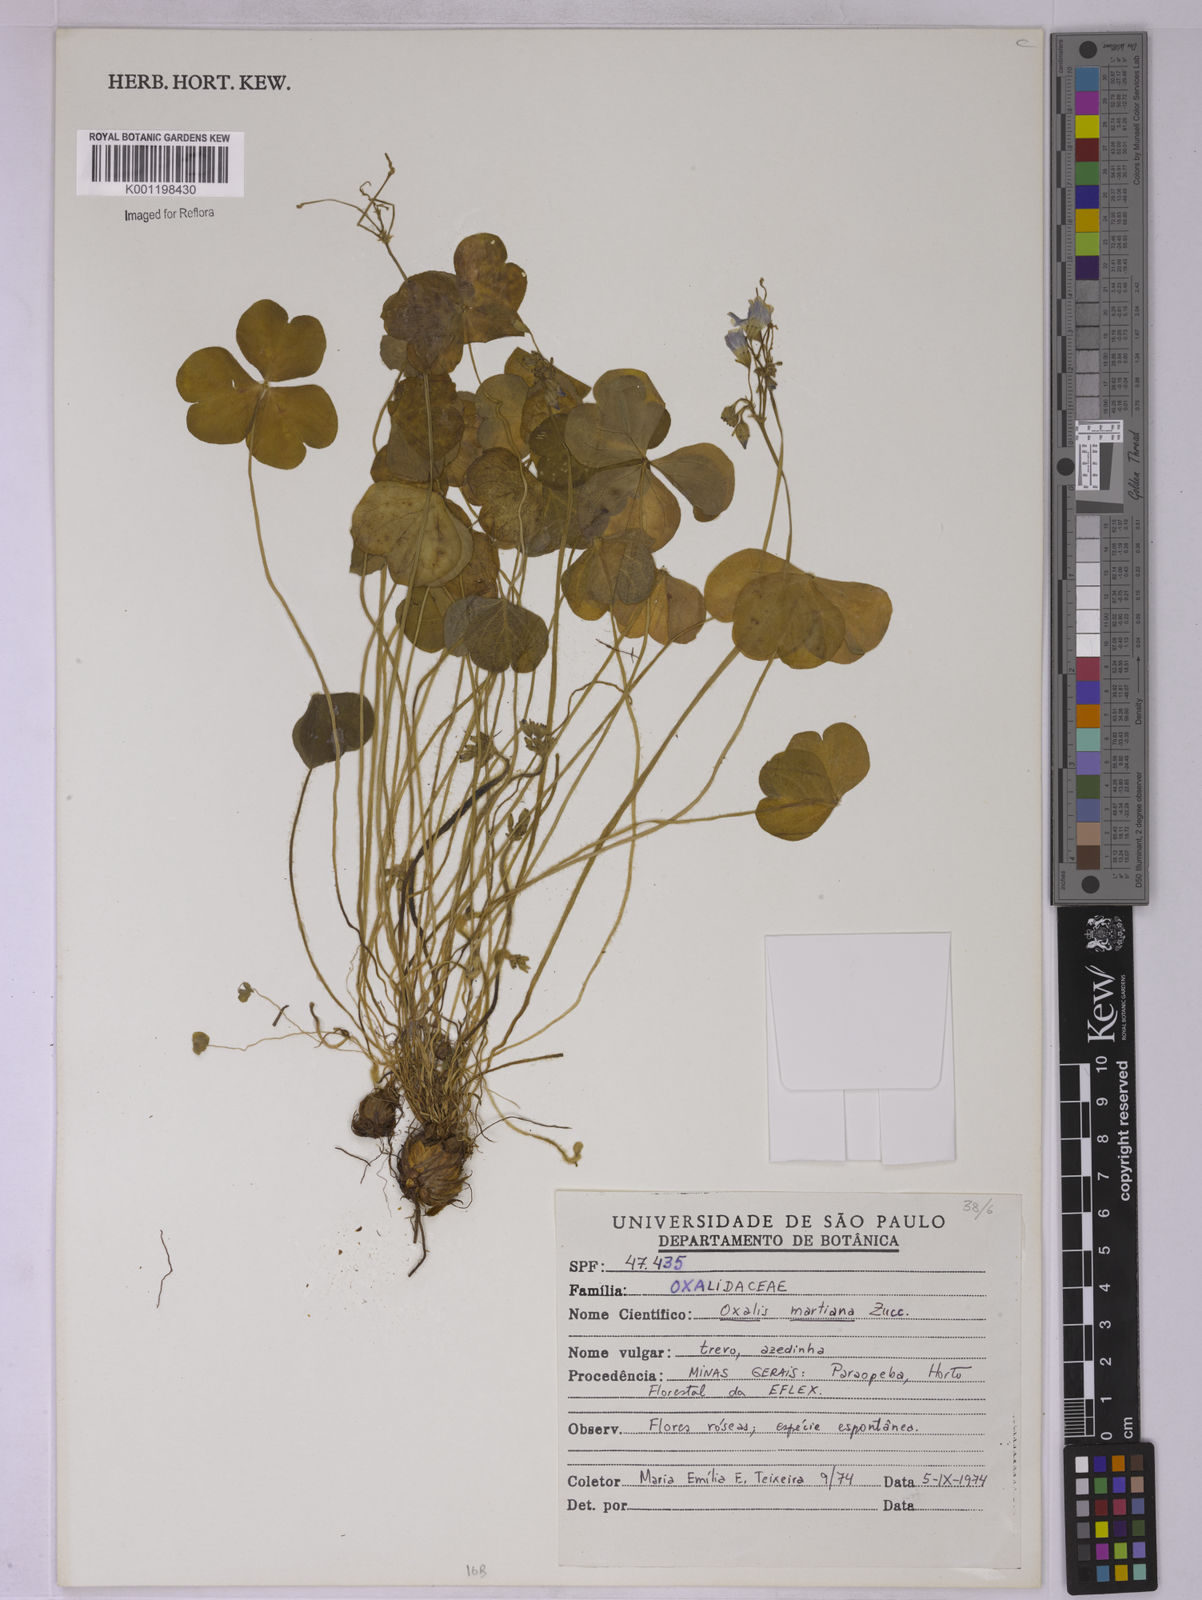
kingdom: Plantae
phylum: Tracheophyta
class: Magnoliopsida
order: Oxalidales
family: Oxalidaceae
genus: Oxalis
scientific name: Oxalis debilis
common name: Large-flowered pink-sorrel
